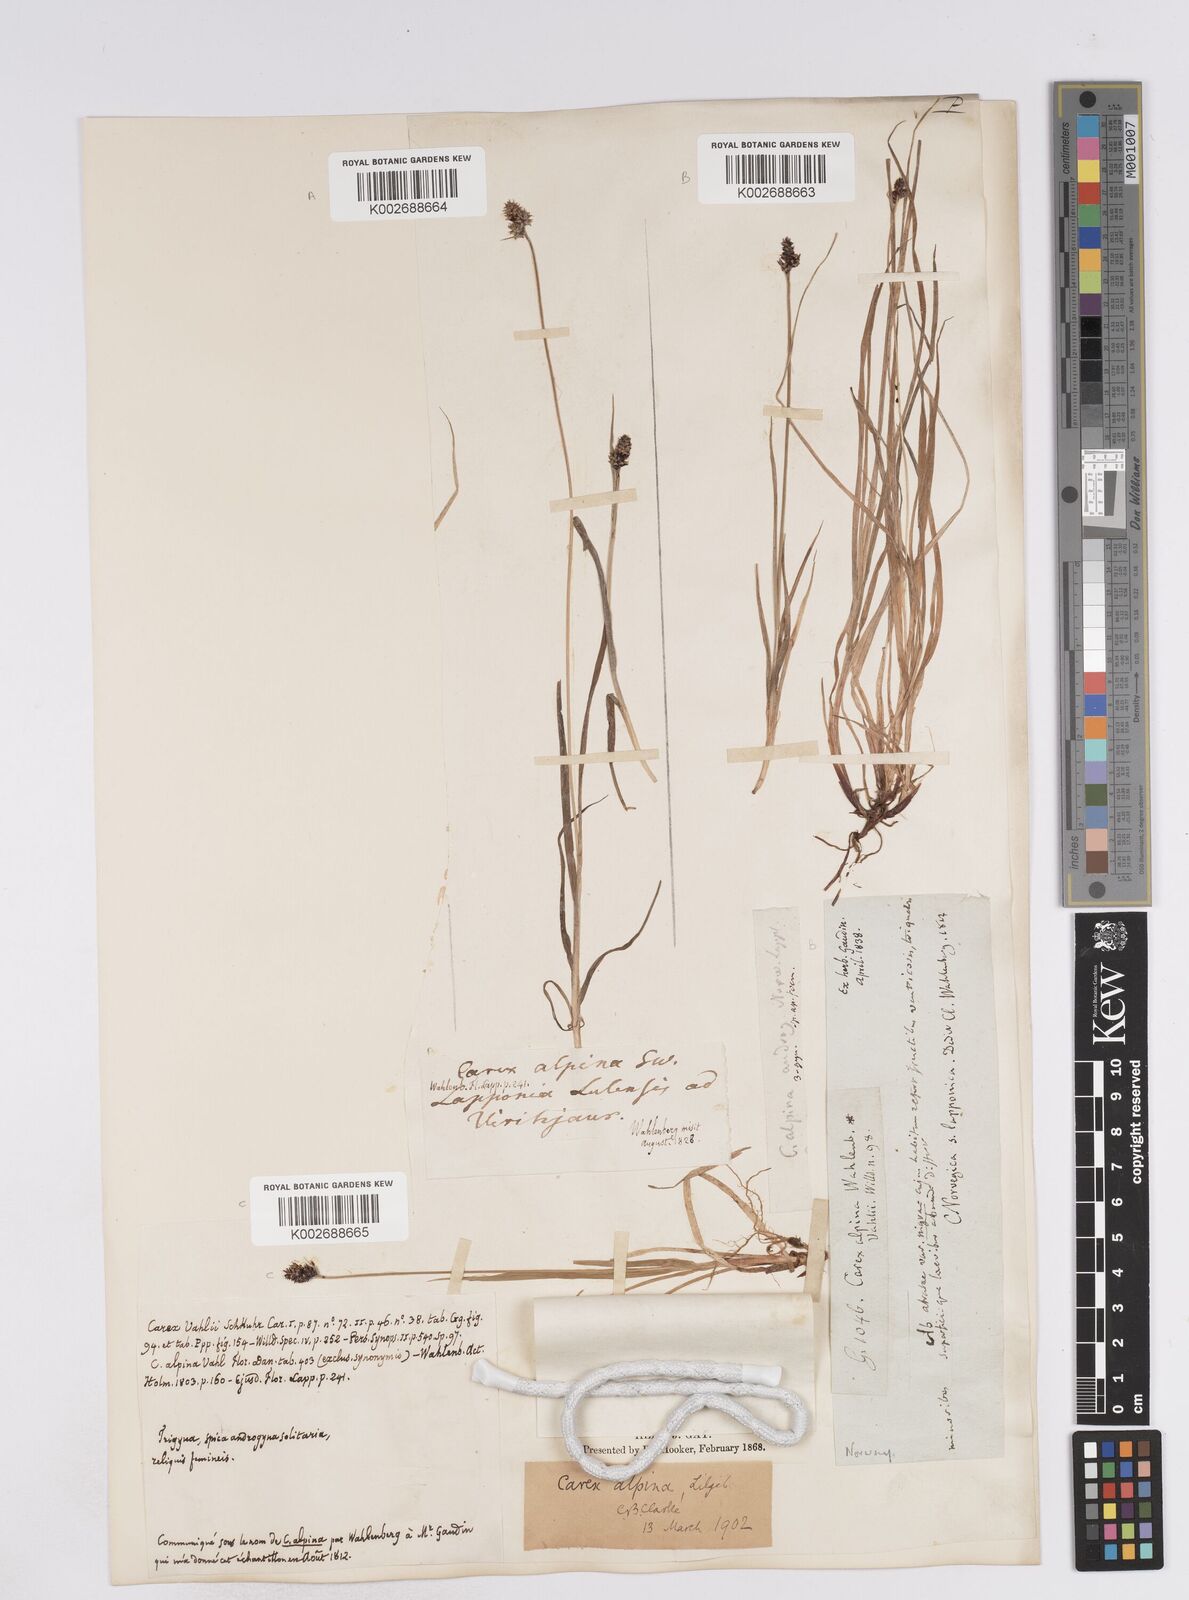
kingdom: Plantae
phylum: Tracheophyta
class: Liliopsida
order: Poales
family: Cyperaceae
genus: Carex
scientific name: Carex media
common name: Alpine sedge
